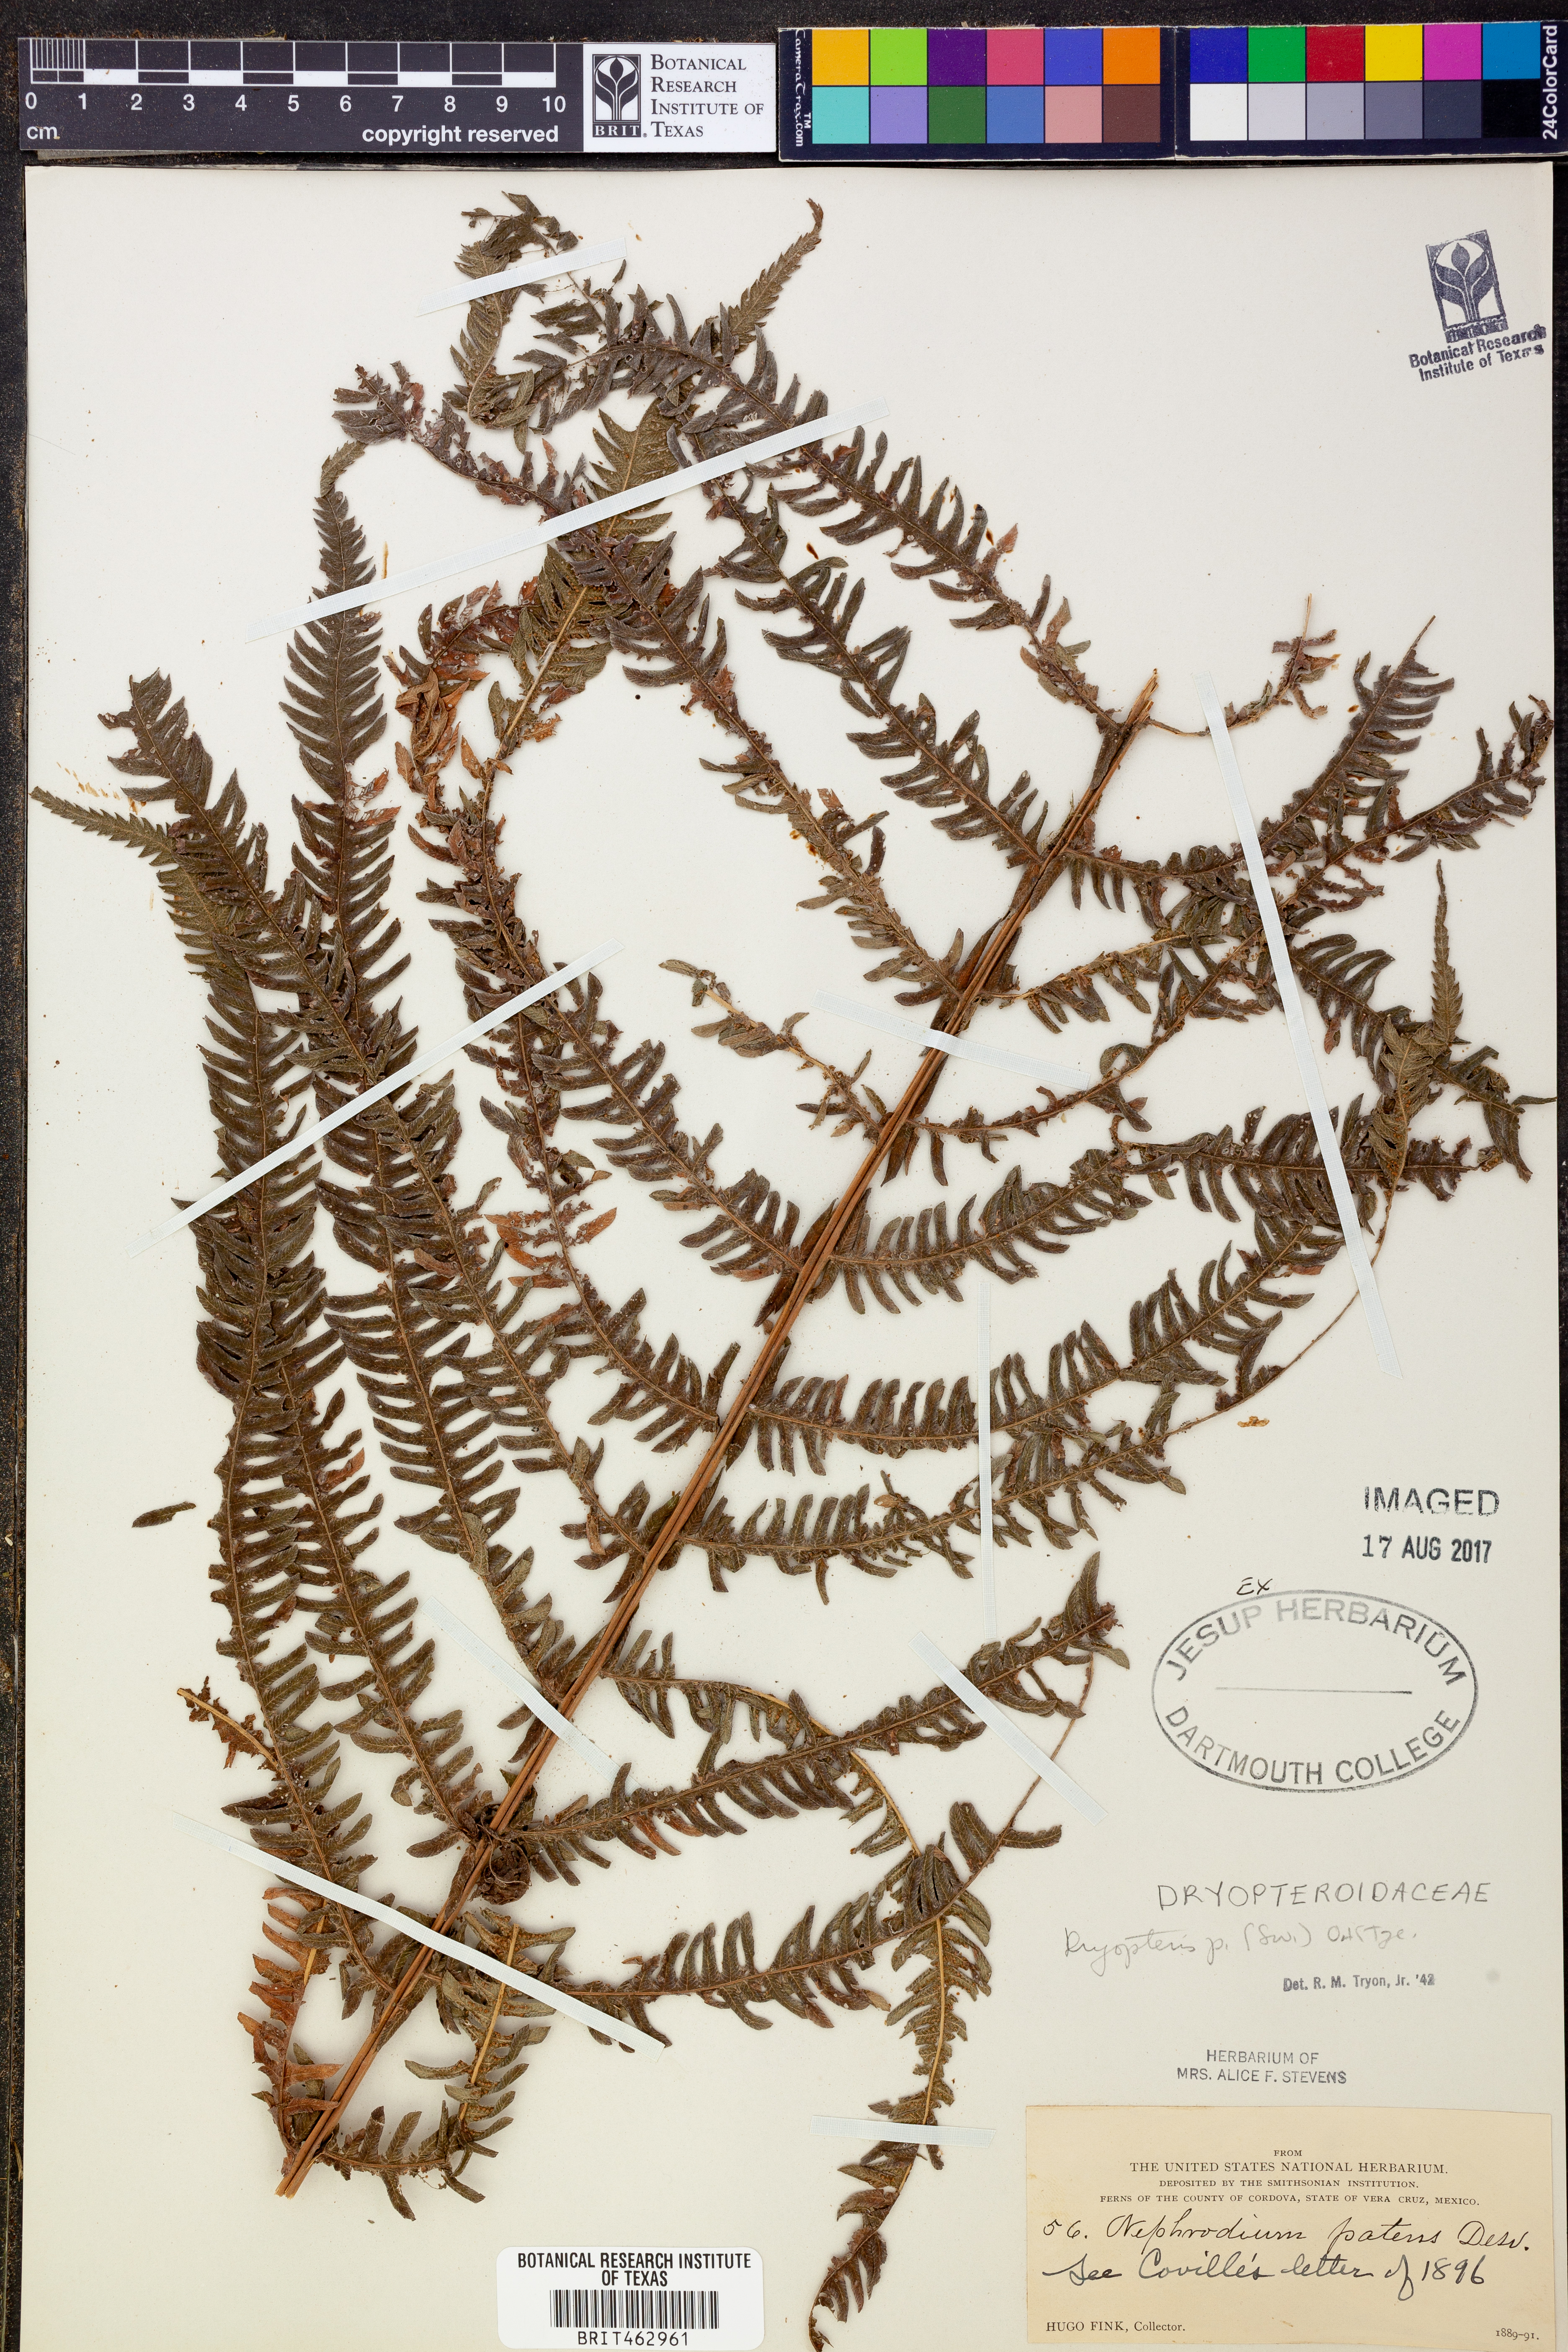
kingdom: Plantae
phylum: Tracheophyta
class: Polypodiopsida
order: Polypodiales
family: Thelypteridaceae
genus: Pelazoneuron
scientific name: Pelazoneuron patens
